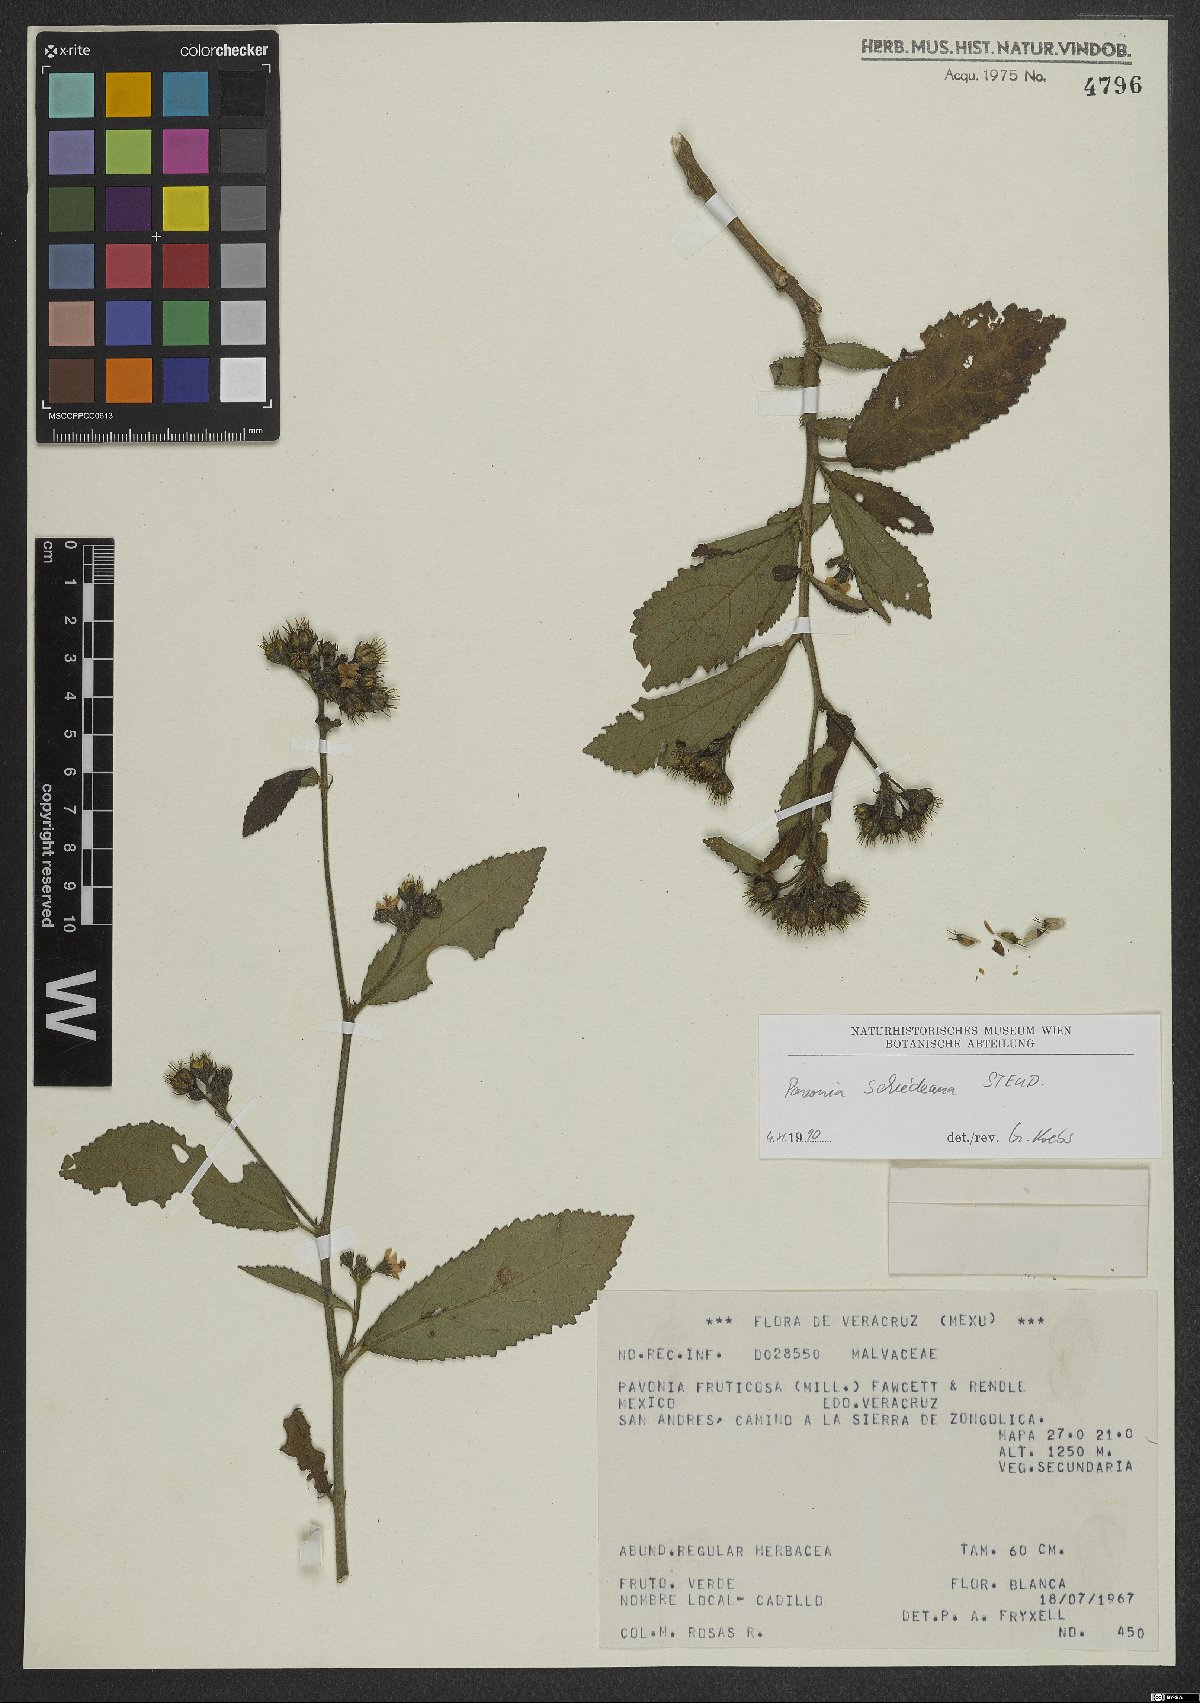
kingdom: Plantae
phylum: Tracheophyta
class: Magnoliopsida
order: Malvales
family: Malvaceae
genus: Pavonia
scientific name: Pavonia schiedeana
